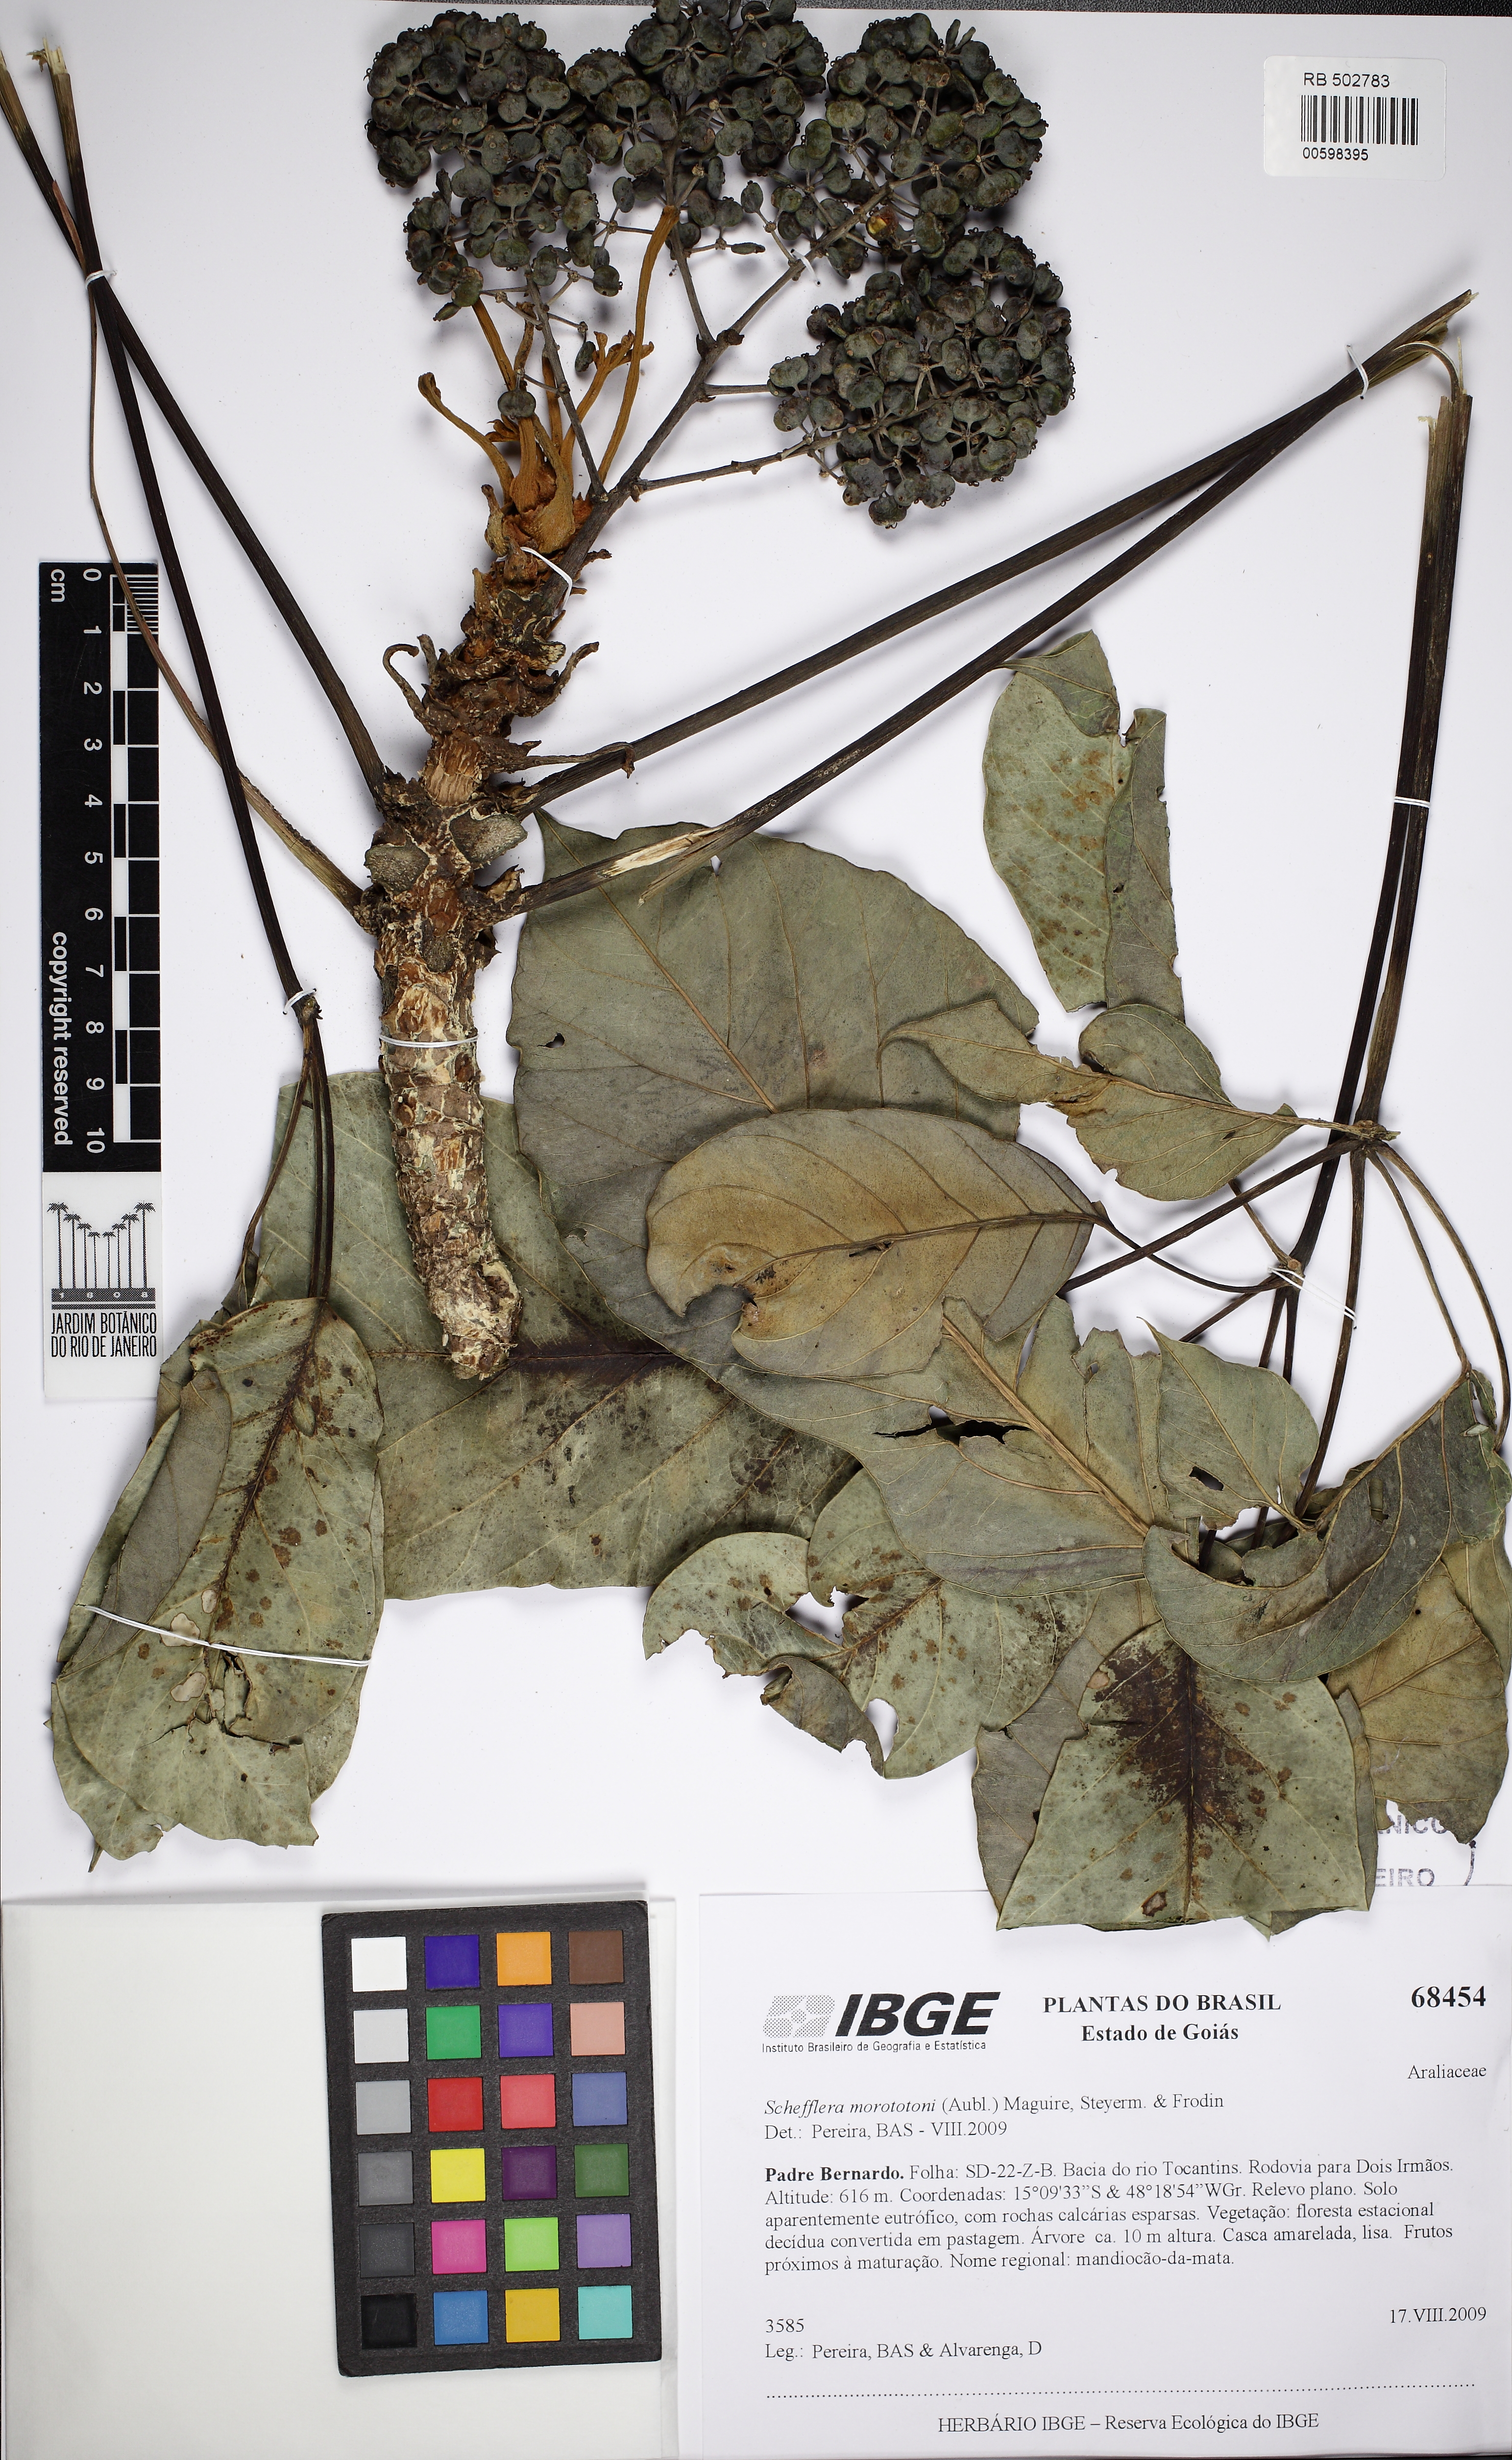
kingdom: Plantae
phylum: Tracheophyta
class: Magnoliopsida
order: Apiales
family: Araliaceae
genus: Didymopanax
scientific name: Didymopanax morototoni
